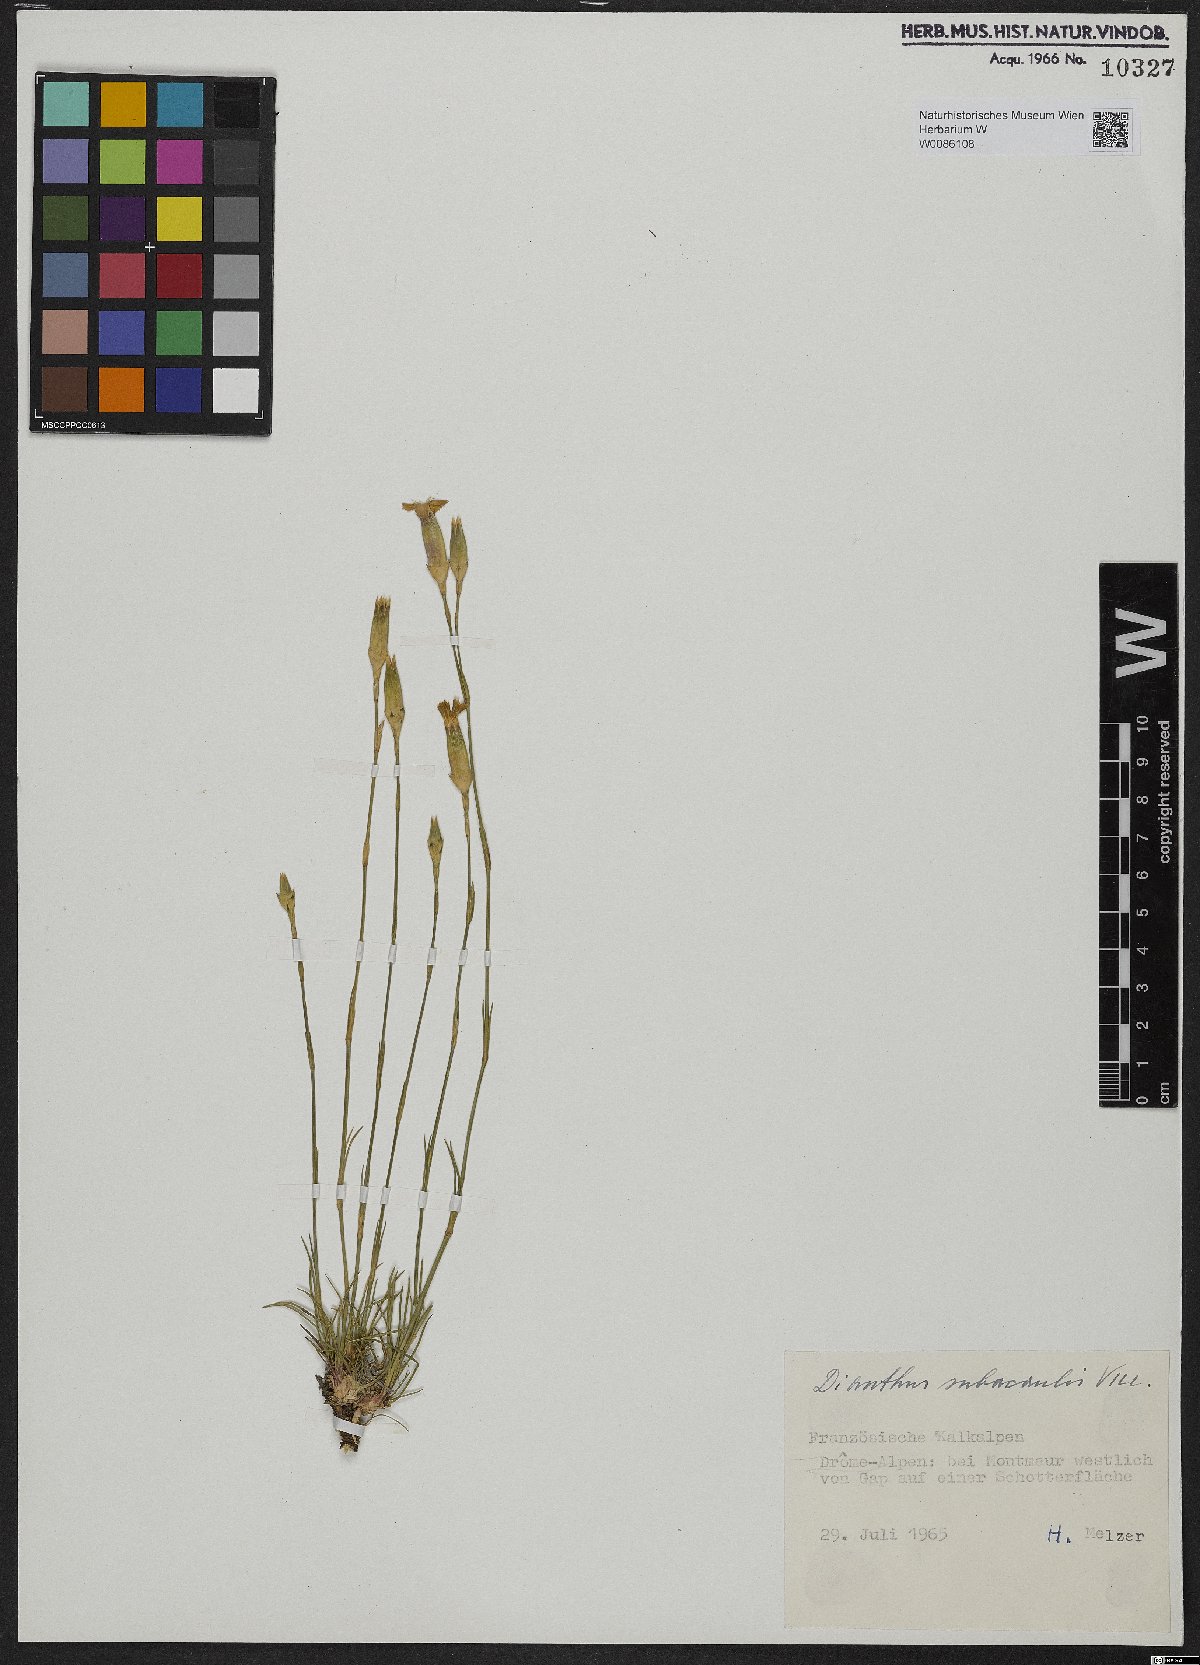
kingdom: Plantae
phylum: Tracheophyta
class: Magnoliopsida
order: Caryophyllales
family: Caryophyllaceae
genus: Dianthus
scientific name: Dianthus subacaulis
